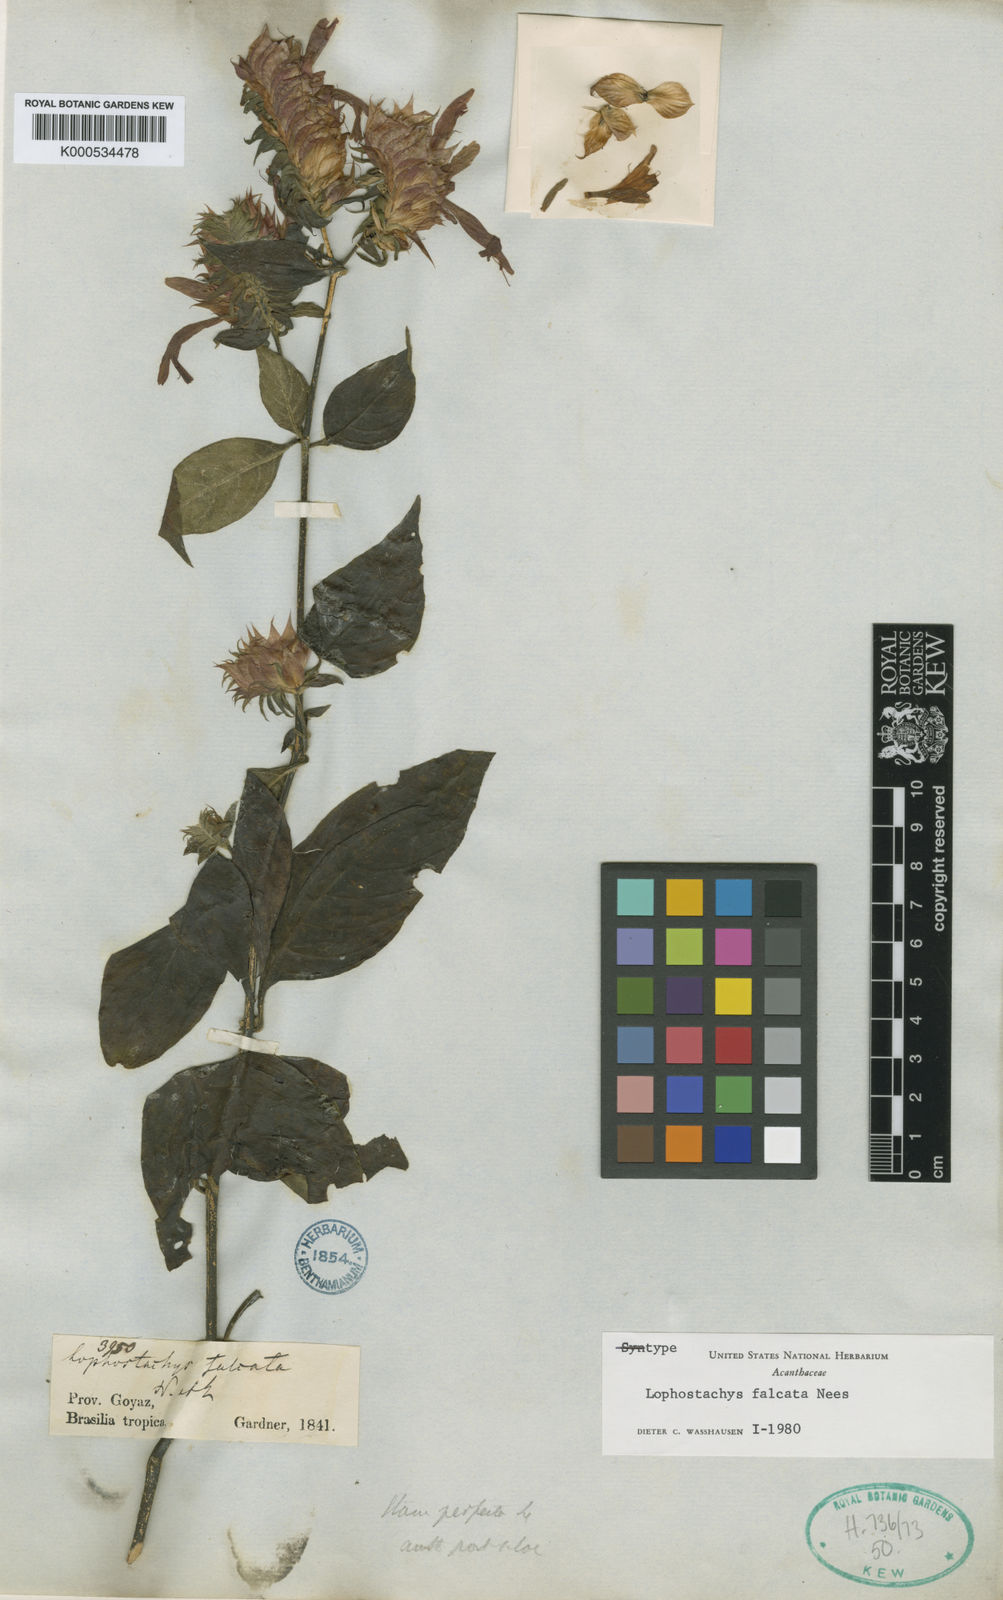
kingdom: Plantae
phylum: Tracheophyta
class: Magnoliopsida
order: Lamiales
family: Acanthaceae
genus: Lepidagathis
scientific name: Lepidagathis floribunda
